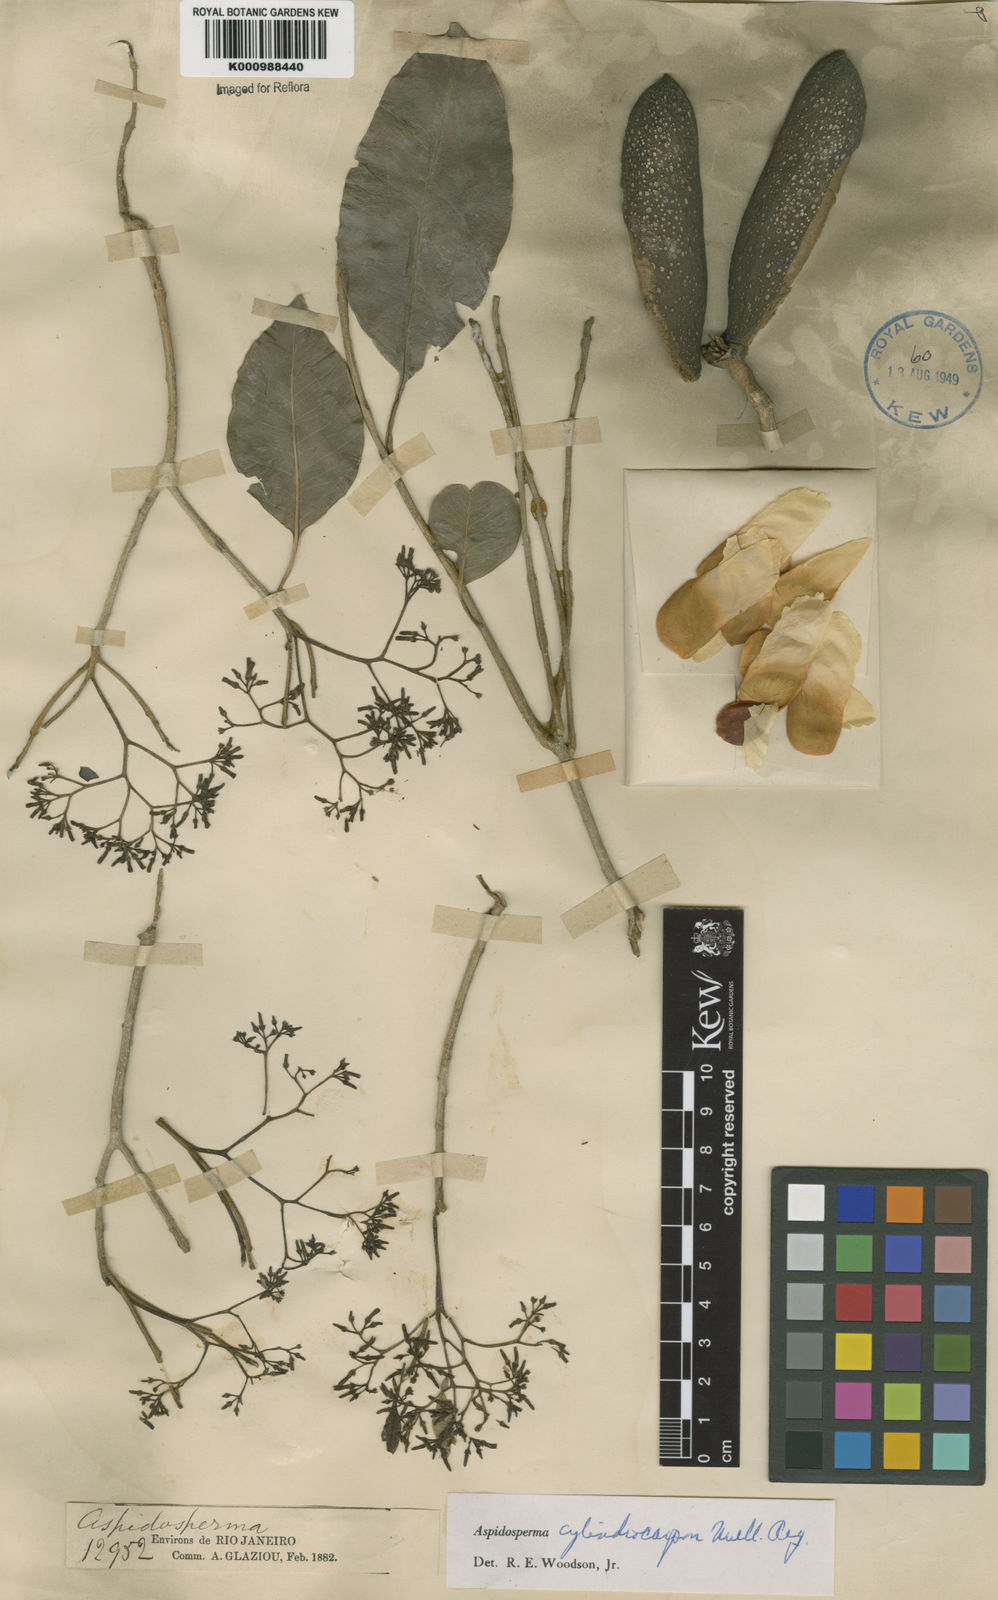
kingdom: Plantae
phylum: Tracheophyta
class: Magnoliopsida
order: Gentianales
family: Apocynaceae
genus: Aspidosperma
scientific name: Aspidosperma
